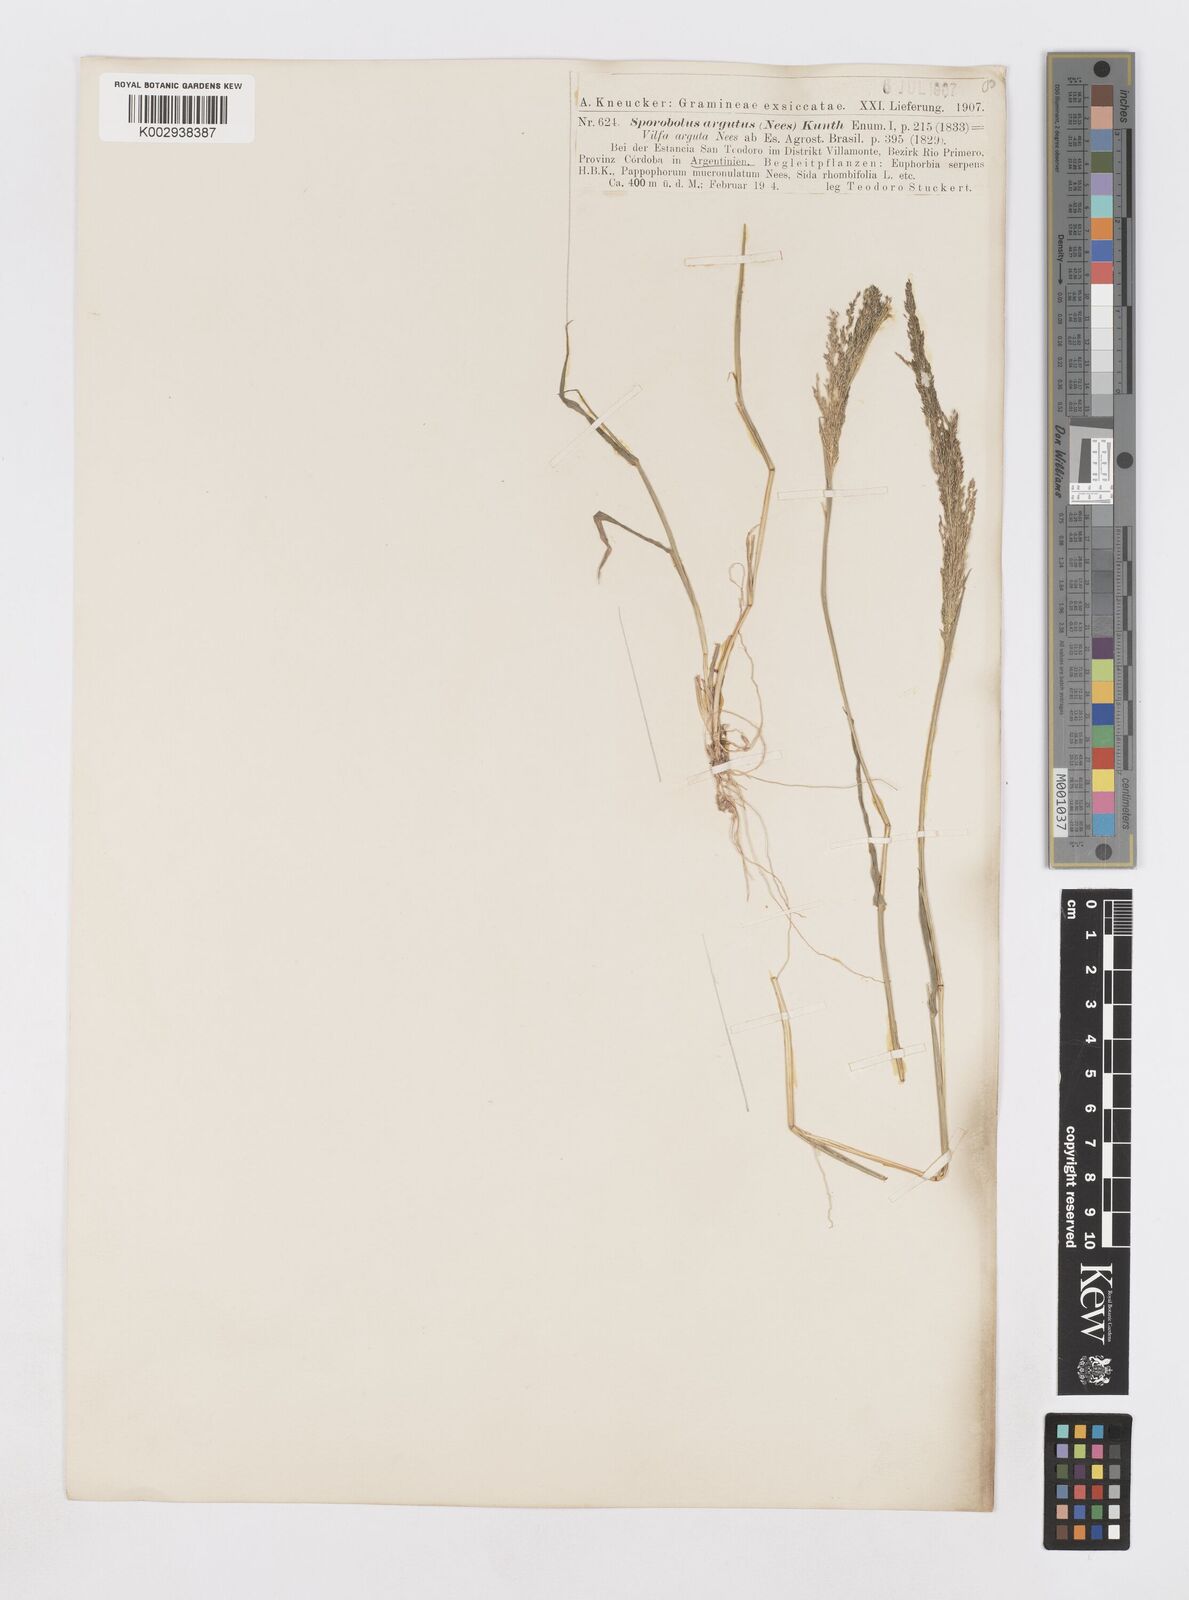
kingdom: Plantae
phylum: Tracheophyta
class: Liliopsida
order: Poales
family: Poaceae
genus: Sporobolus
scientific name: Sporobolus pyramidatus
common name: Whorled dropseed
